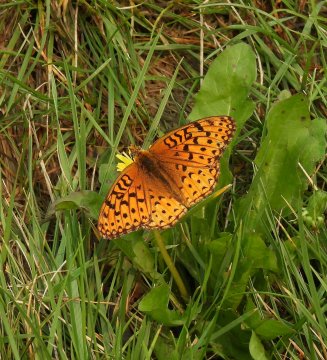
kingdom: Animalia
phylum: Arthropoda
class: Insecta
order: Lepidoptera
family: Nymphalidae
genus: Speyeria
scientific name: Speyeria cybele
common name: Great Spangled Fritillary
